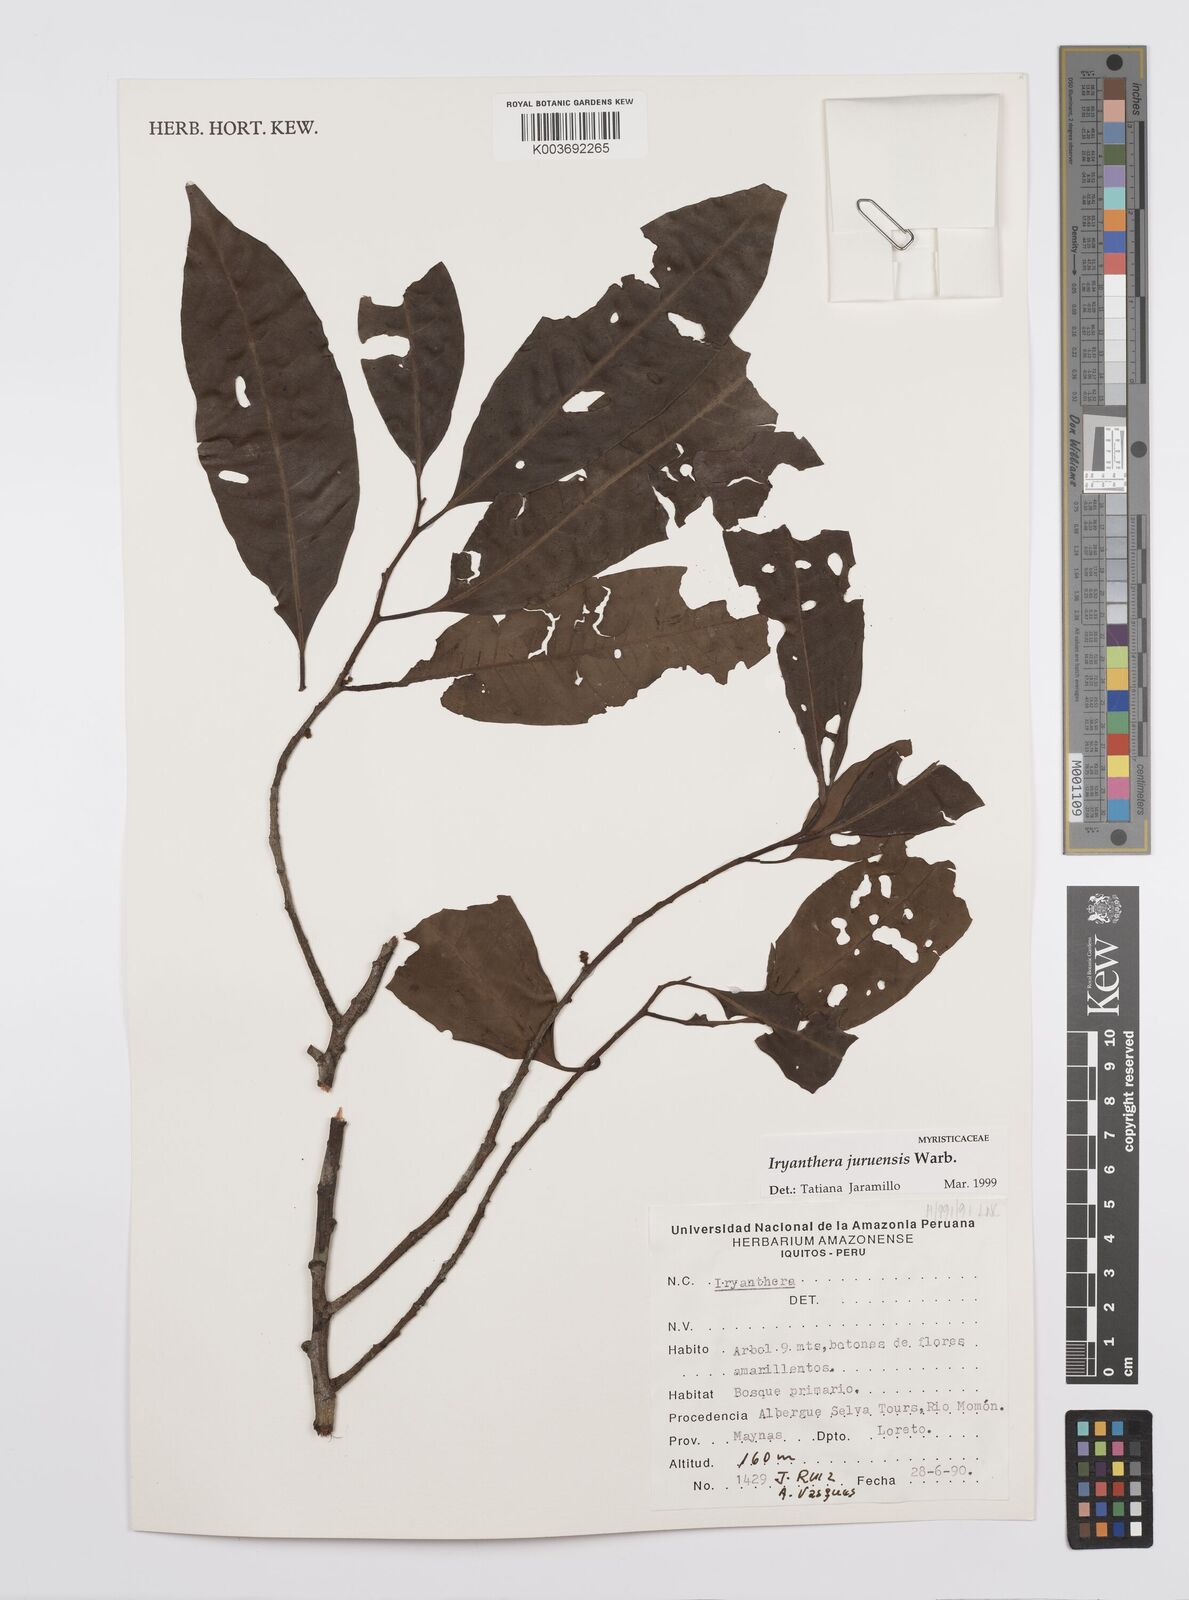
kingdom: Plantae
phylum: Tracheophyta
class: Magnoliopsida
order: Magnoliales
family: Myristicaceae
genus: Iryanthera
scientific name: Iryanthera juruensis
